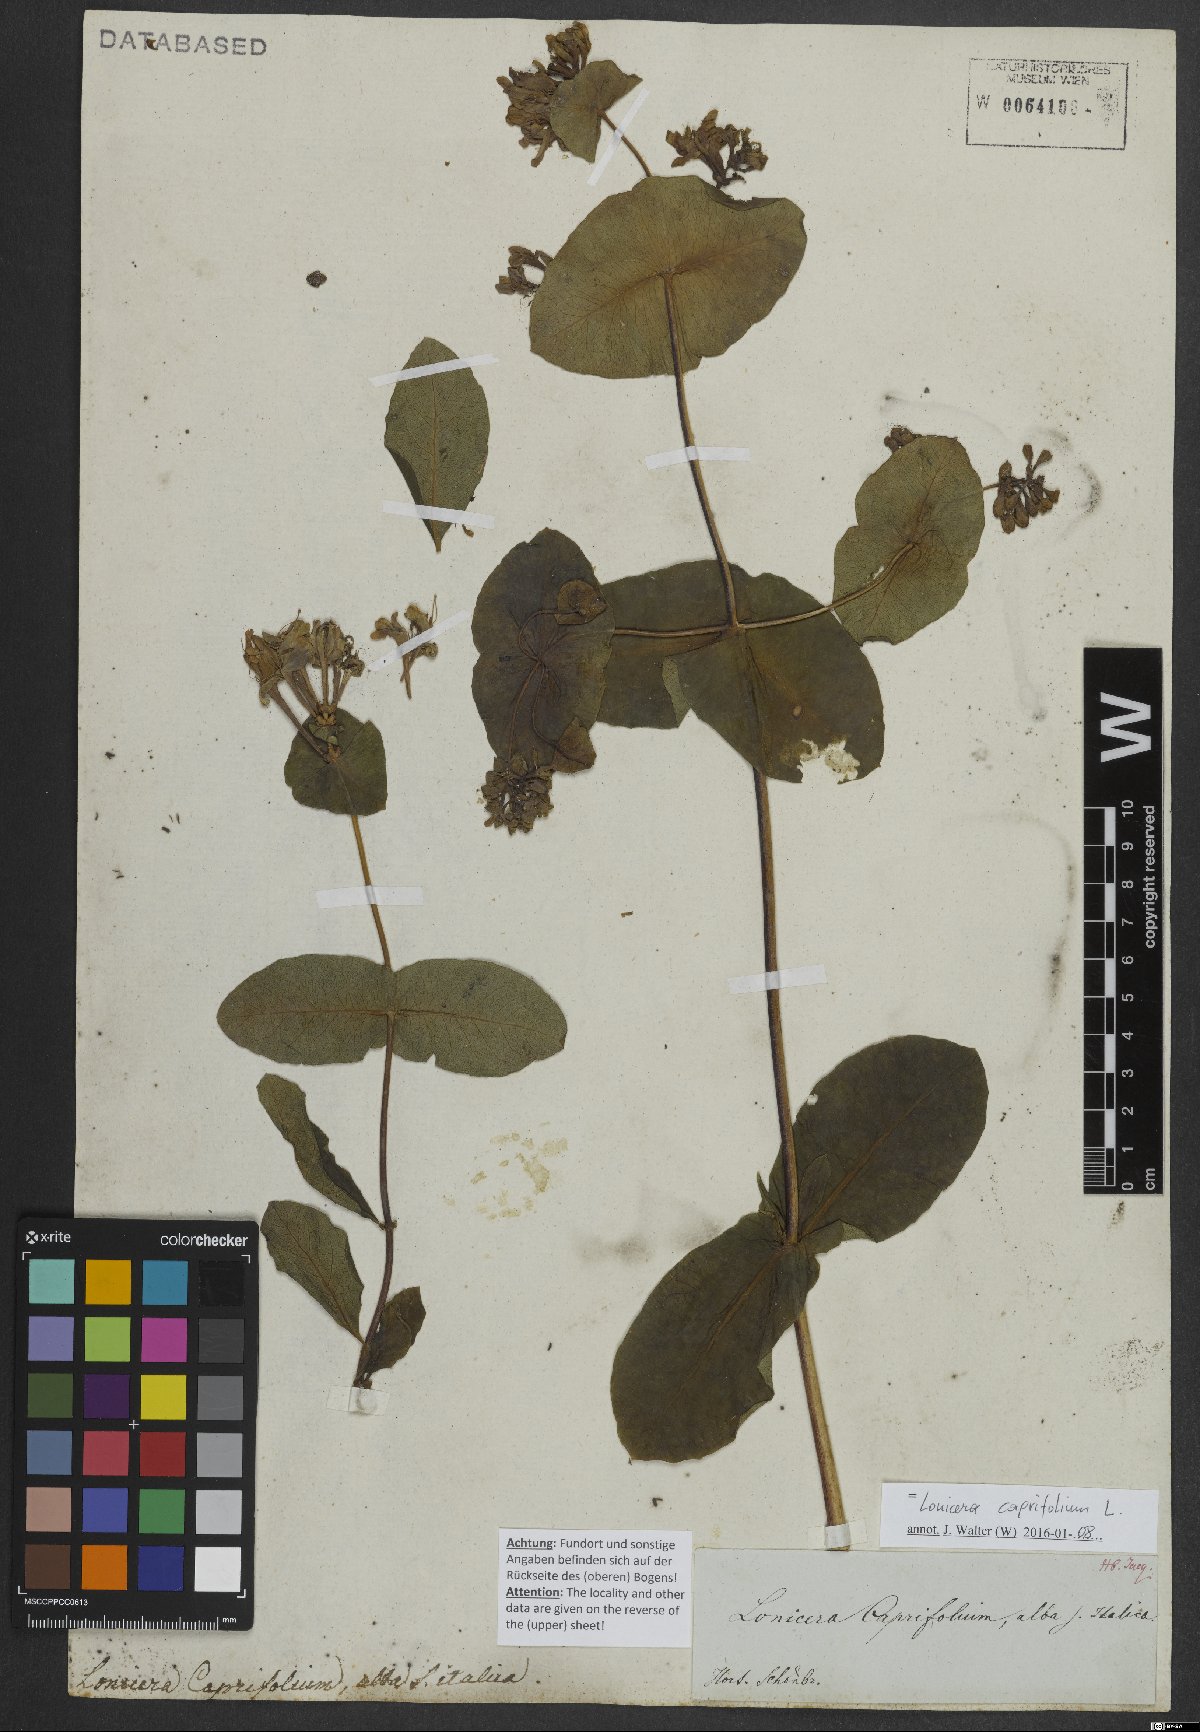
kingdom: Plantae
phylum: Tracheophyta
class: Magnoliopsida
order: Dipsacales
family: Caprifoliaceae
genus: Lonicera
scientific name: Lonicera caprifolium
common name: Perfoliate honeysuckle
